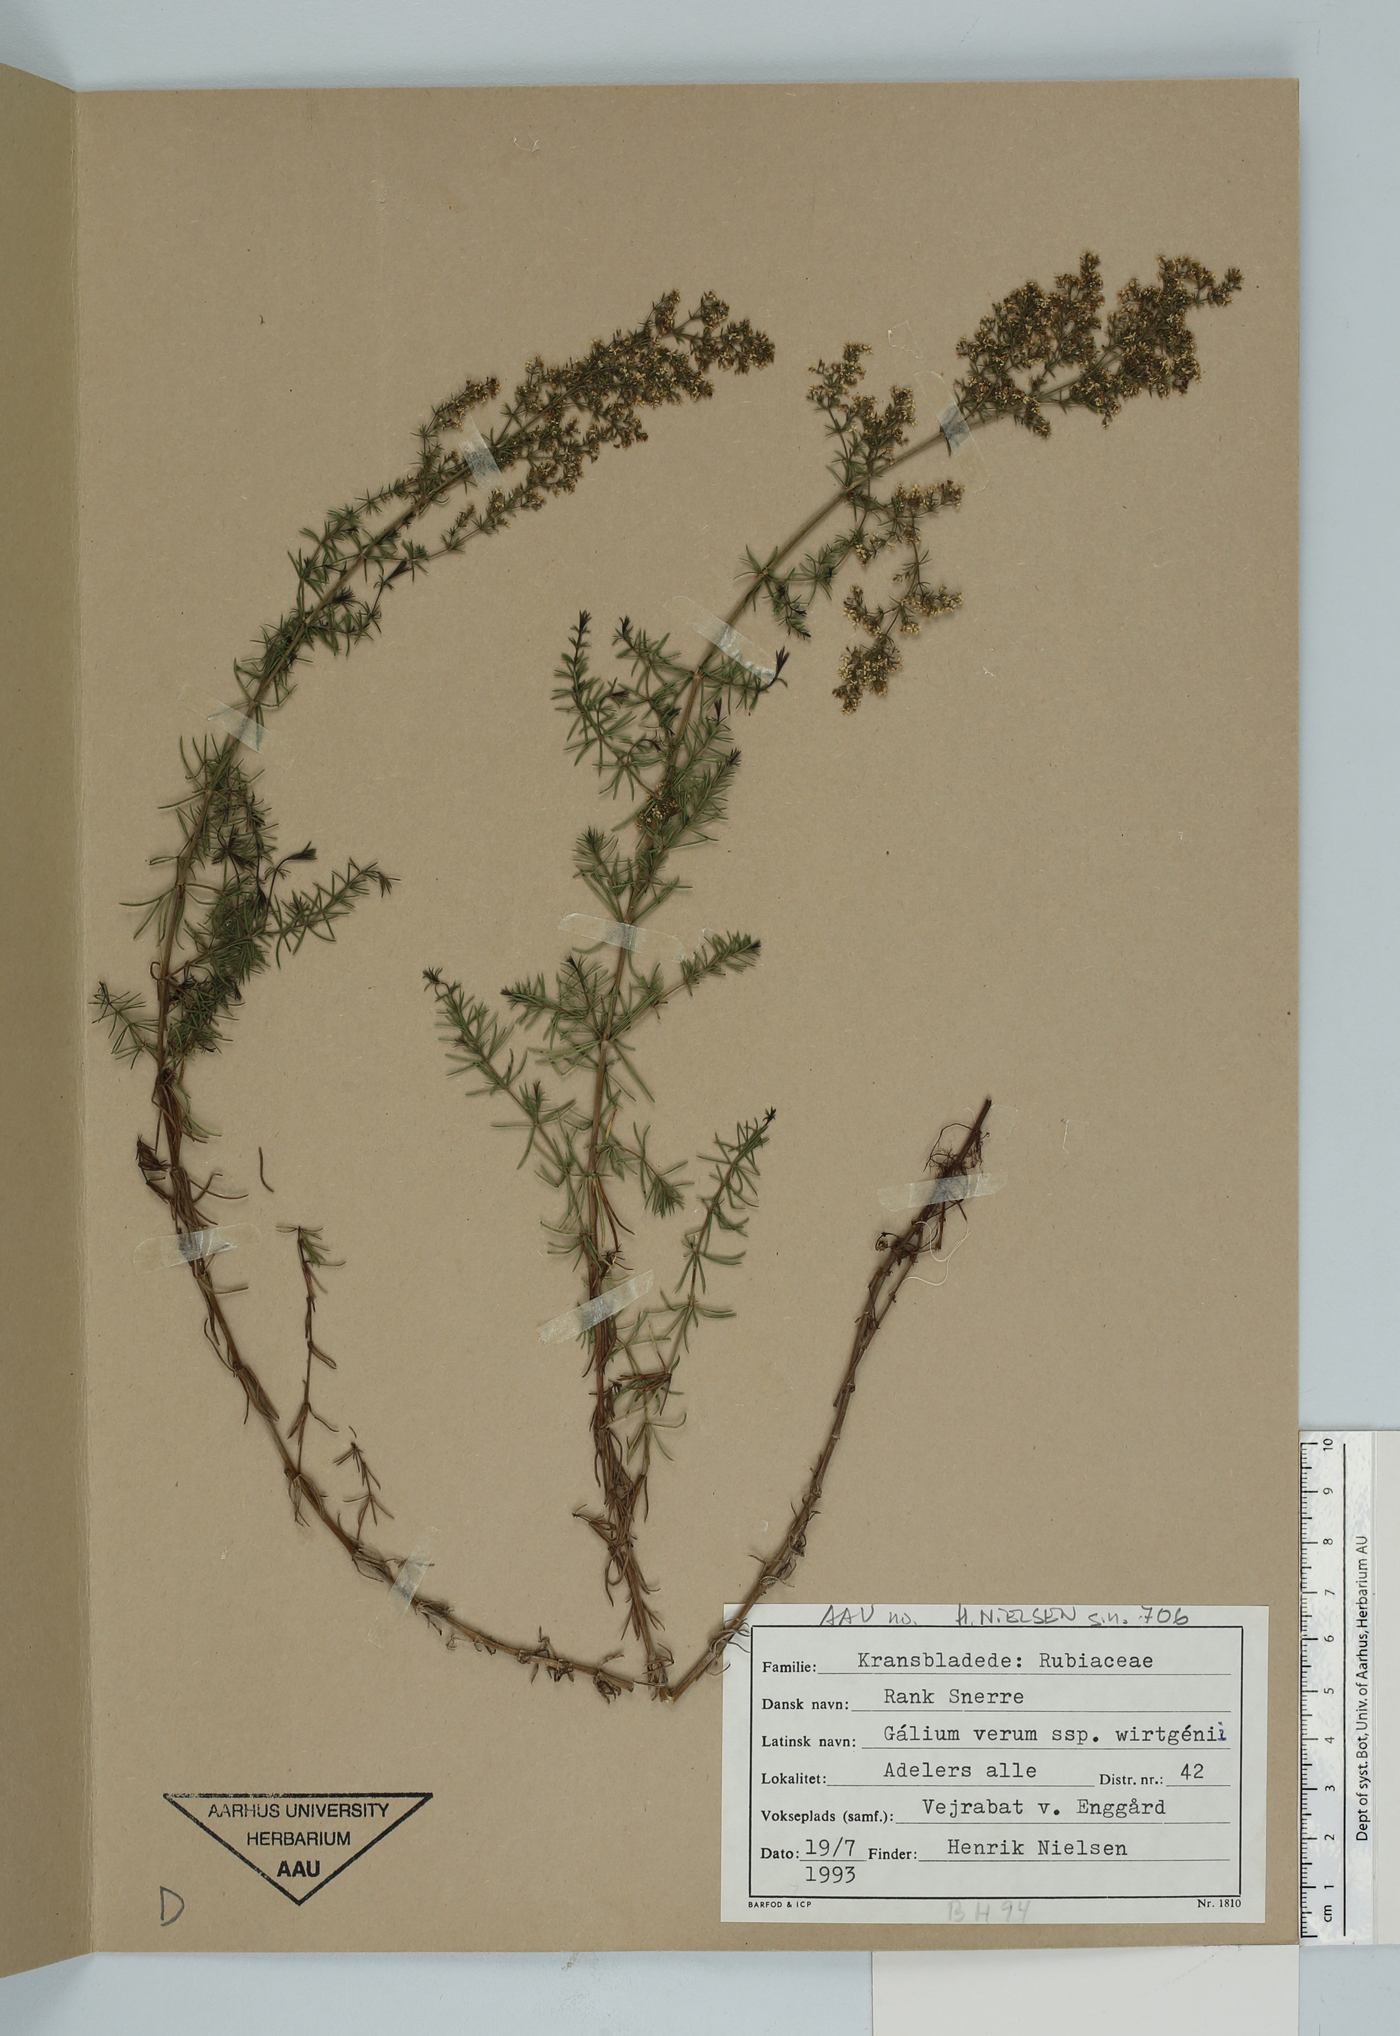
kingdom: Plantae
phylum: Tracheophyta
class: Magnoliopsida
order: Gentianales
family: Rubiaceae
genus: Galium
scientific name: Galium verum
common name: Lady's bedstraw
